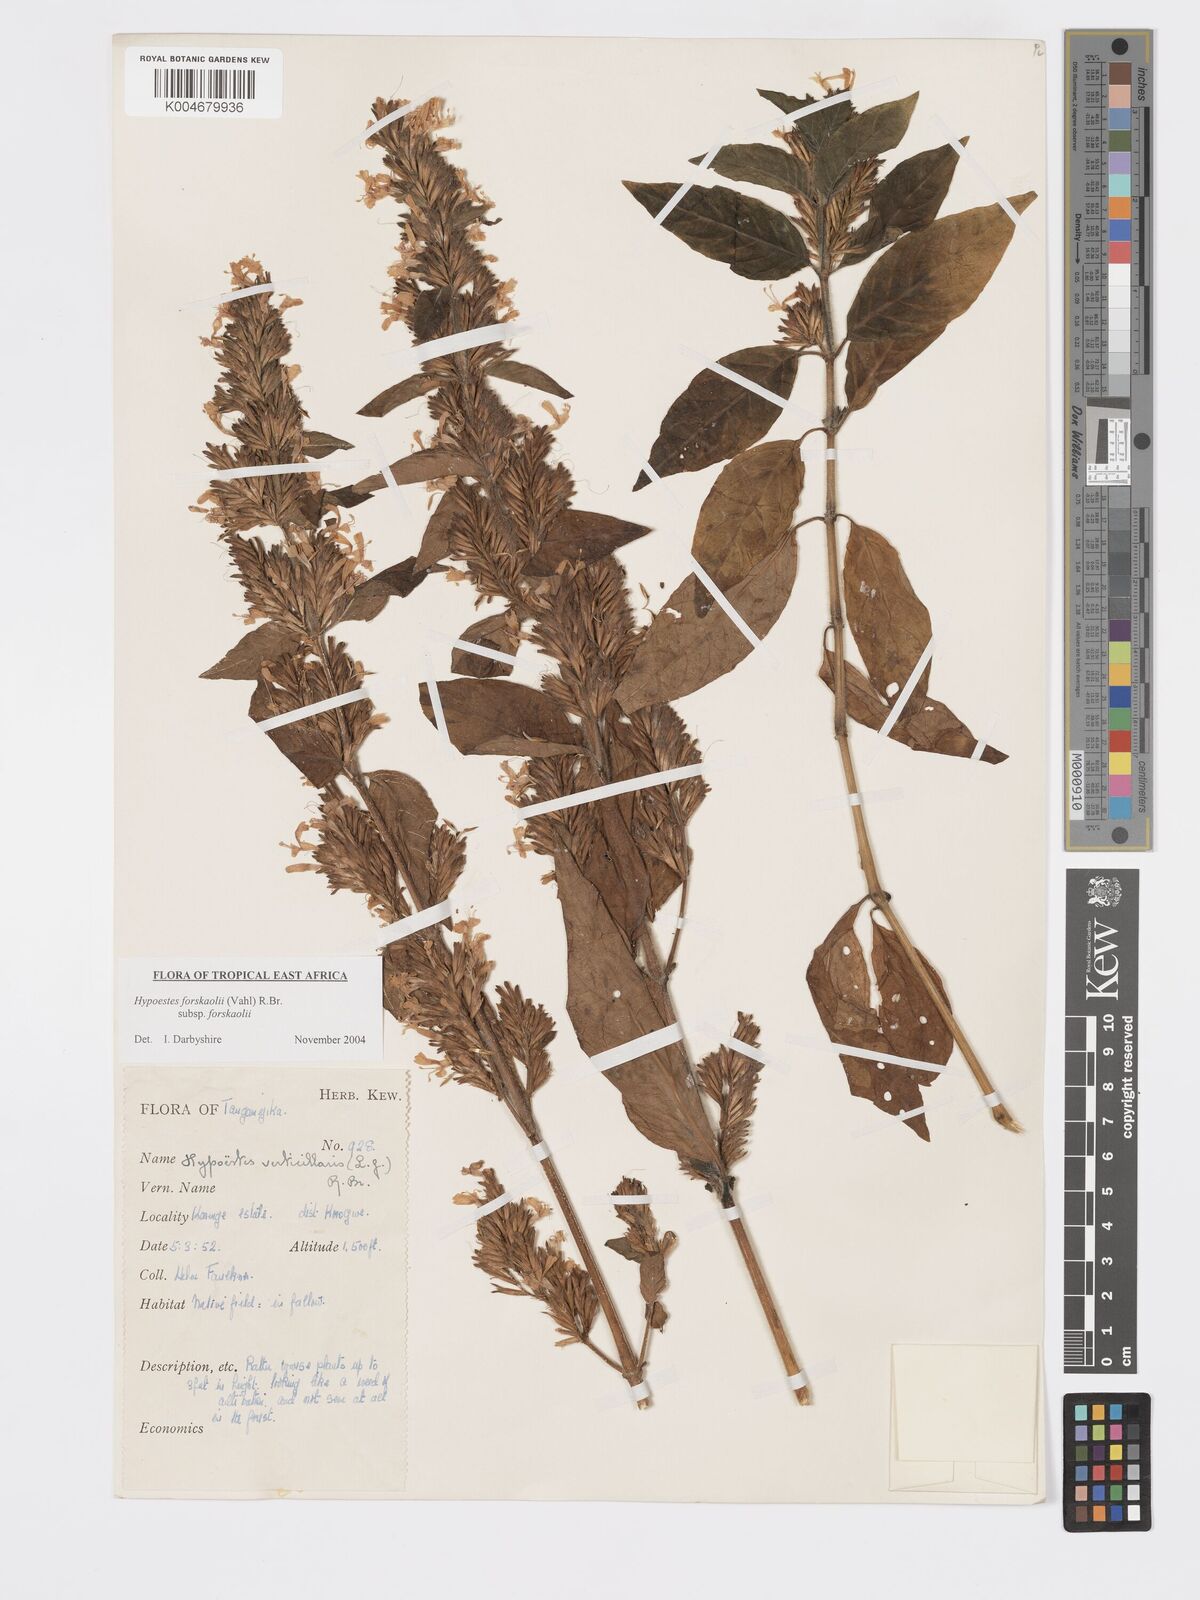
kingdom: Plantae
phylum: Tracheophyta
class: Magnoliopsida
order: Lamiales
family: Acanthaceae
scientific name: Acanthaceae
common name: Acanthaceae
